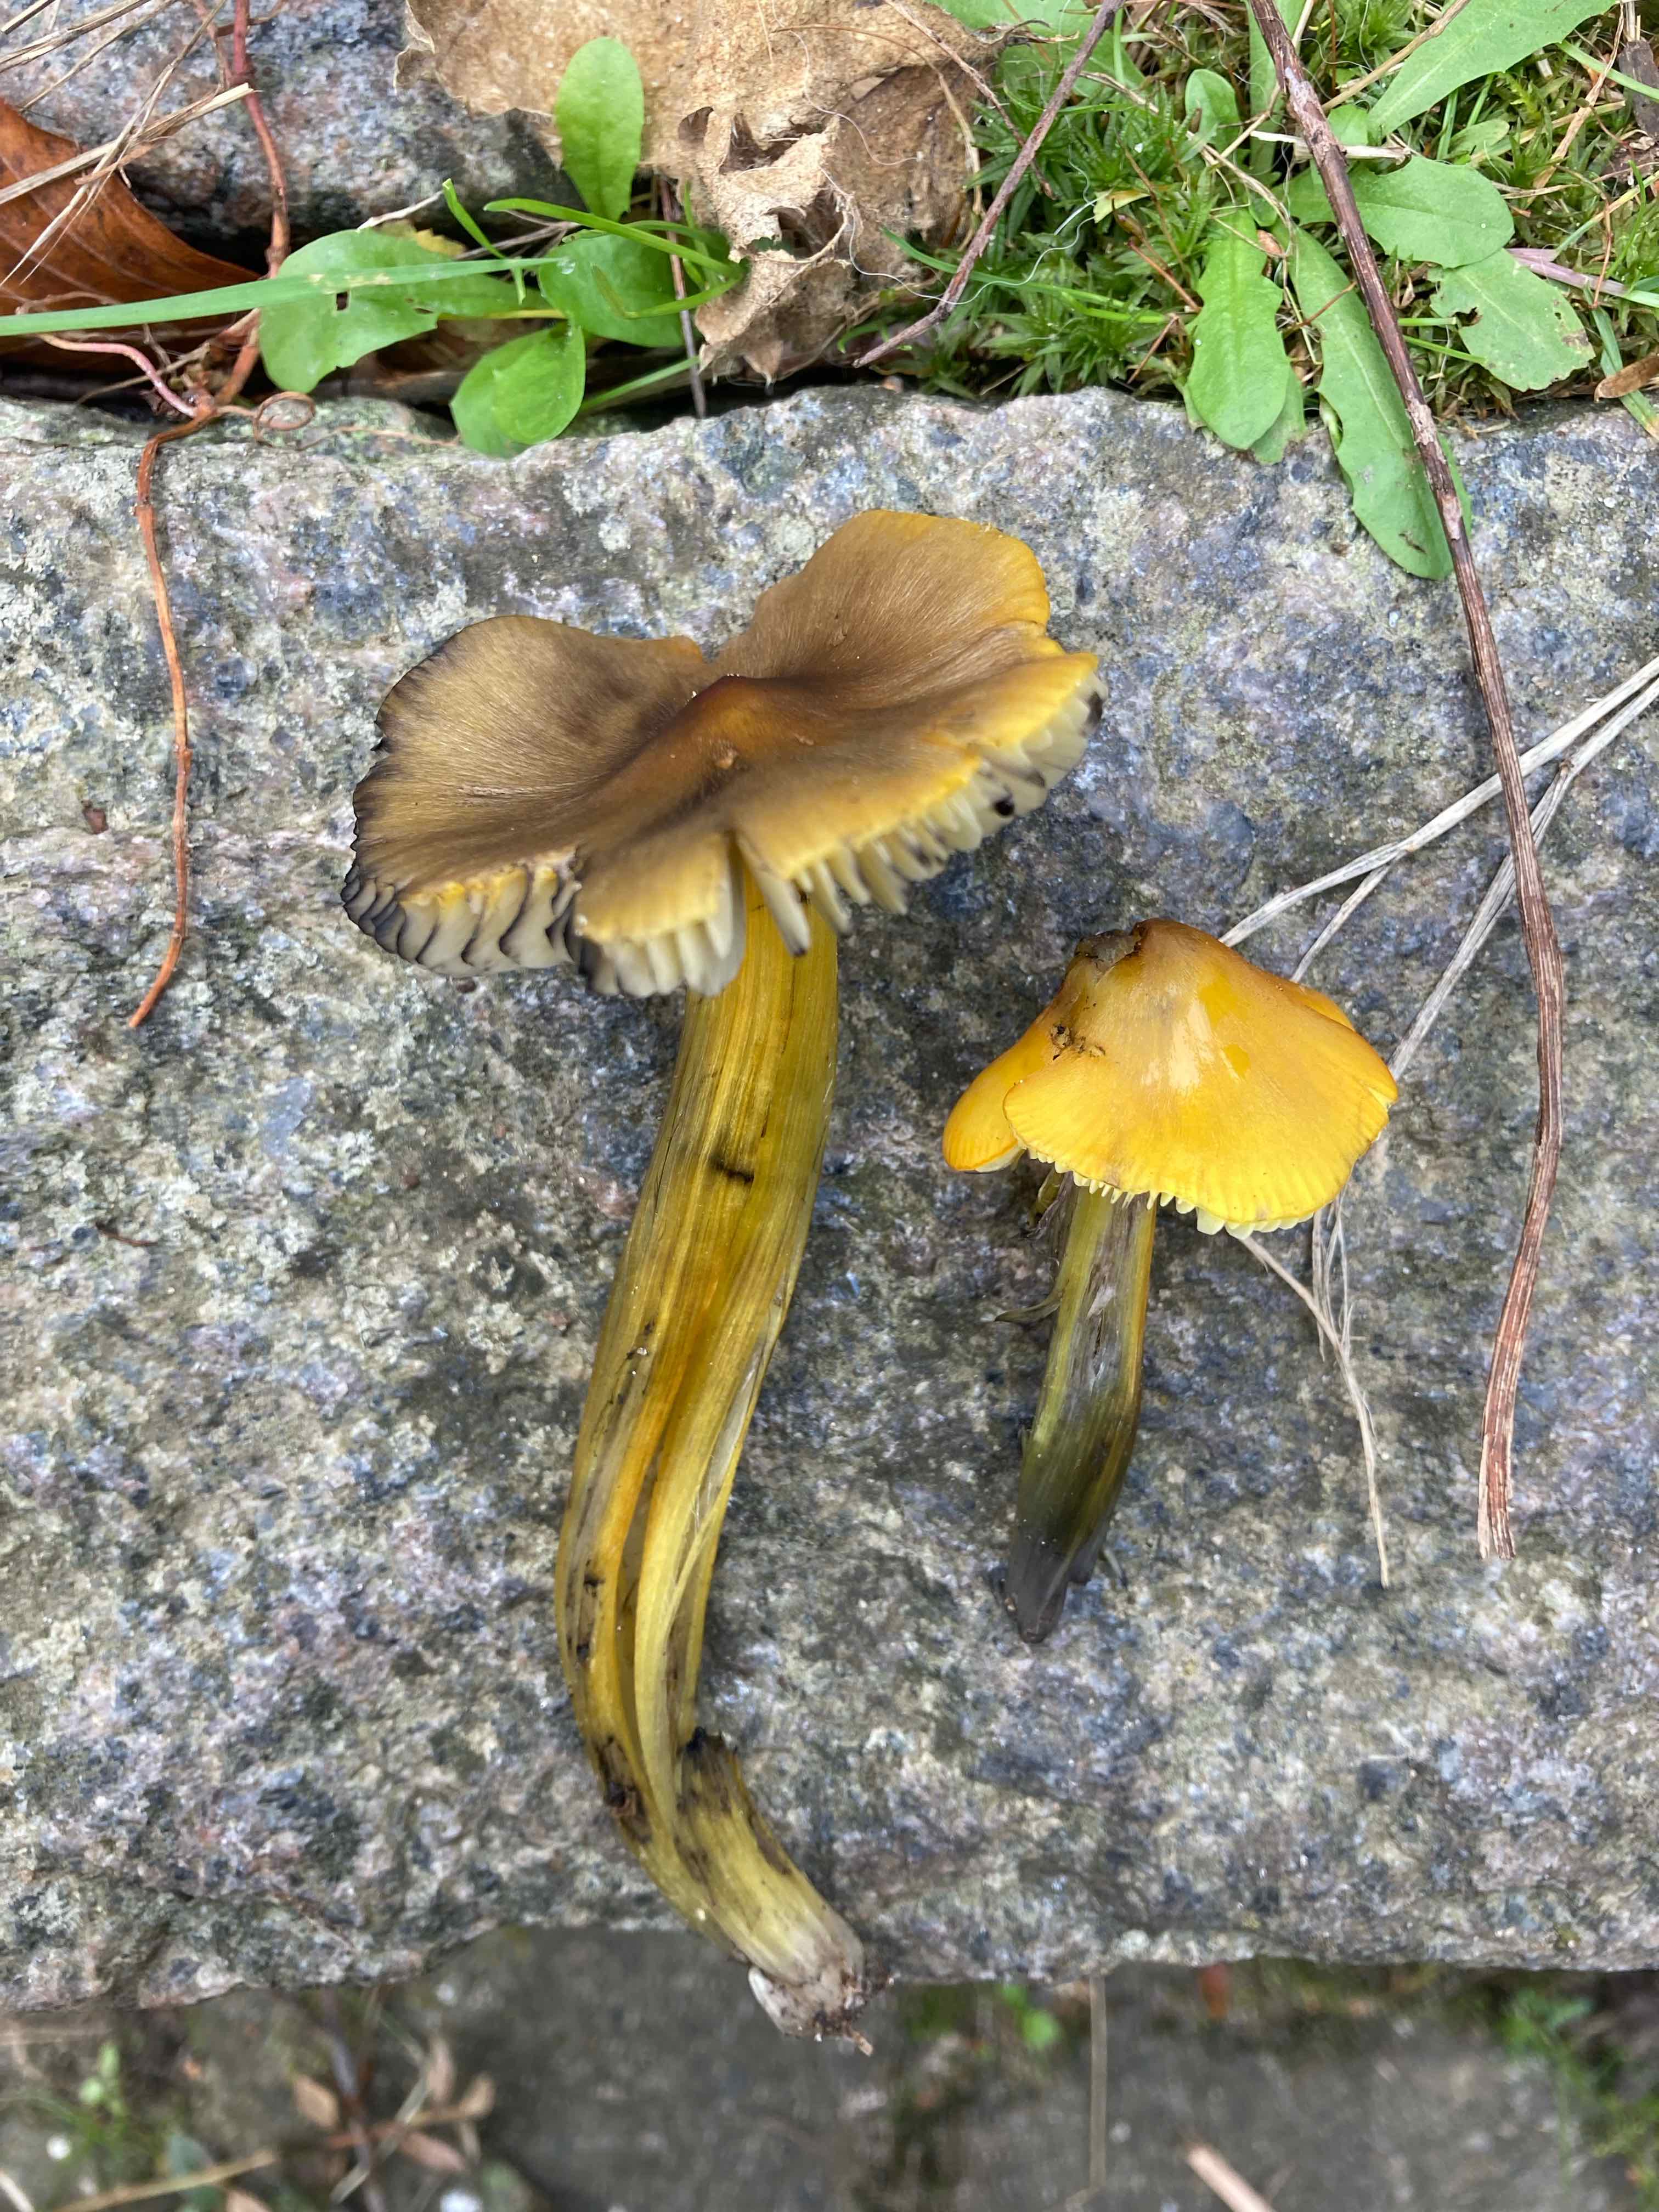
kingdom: Fungi
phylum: Basidiomycota
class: Agaricomycetes
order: Agaricales
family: Hygrophoraceae
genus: Hygrocybe
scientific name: Hygrocybe conica
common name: kegle-vokshat
